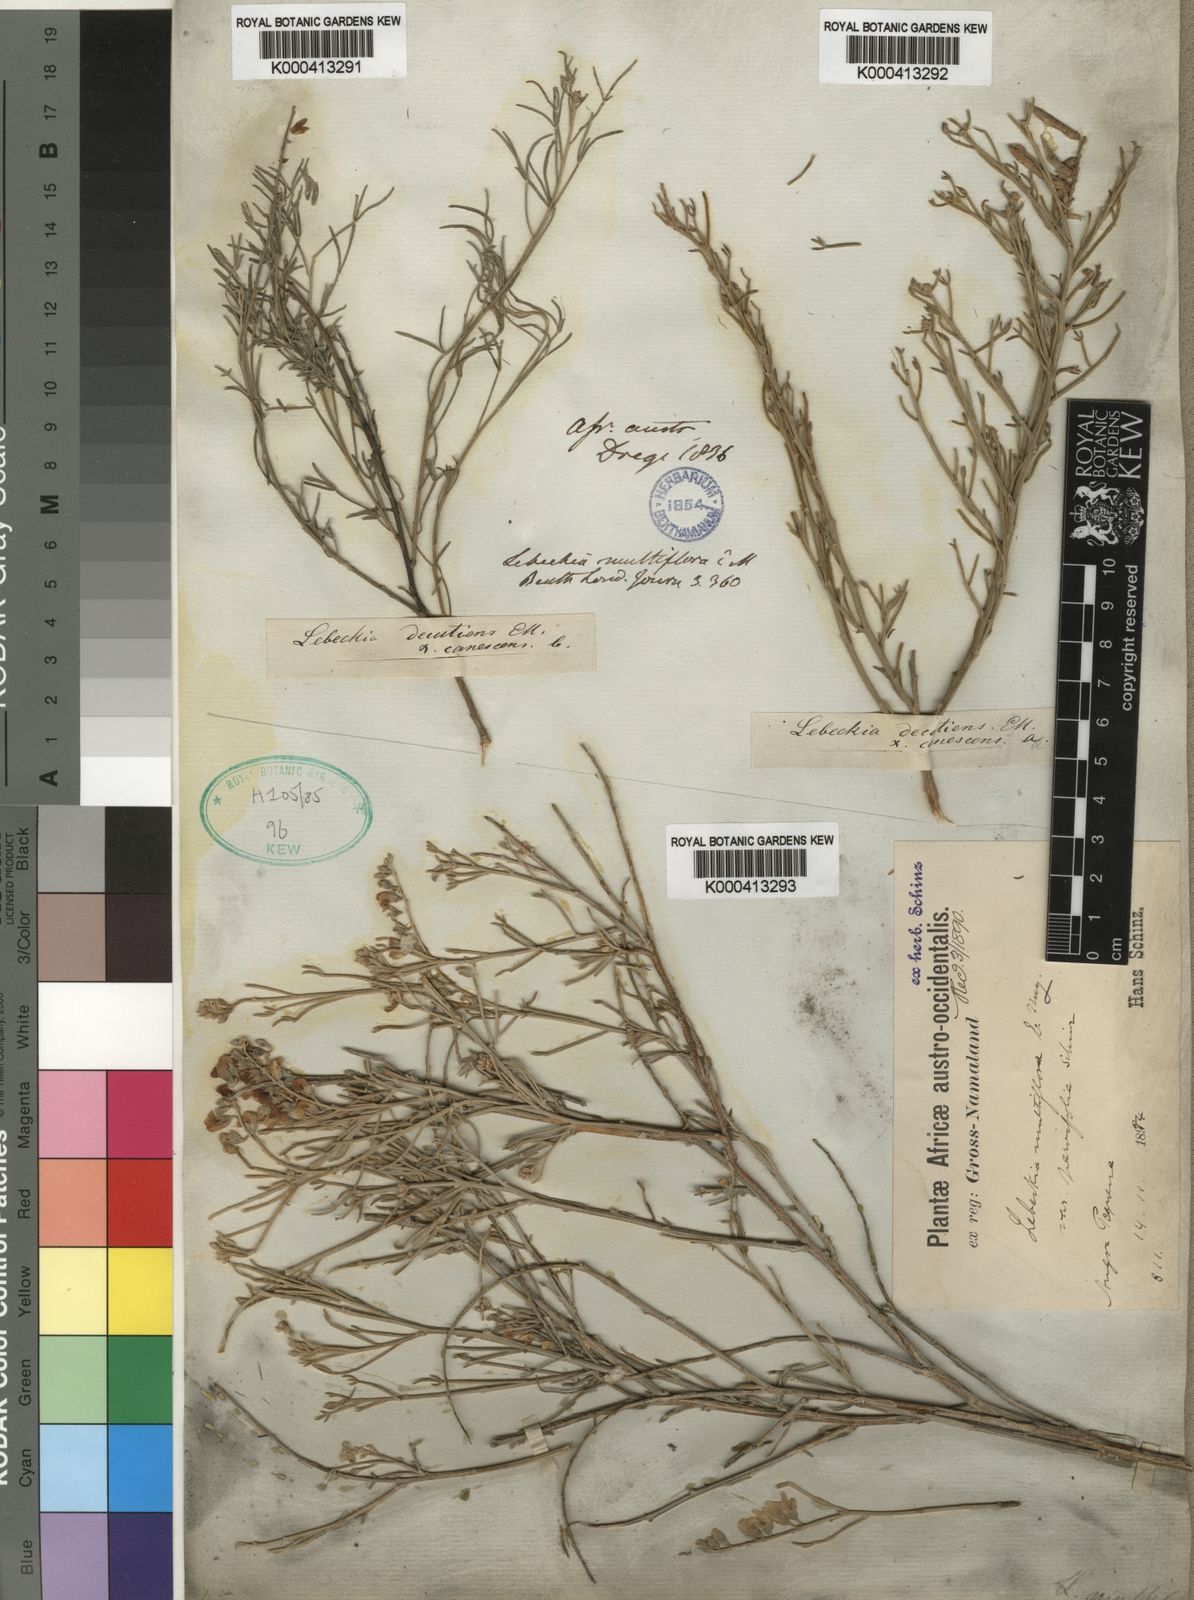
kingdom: Plantae
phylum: Tracheophyta
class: Magnoliopsida
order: Fabales
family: Fabaceae
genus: Calobota
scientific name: Calobota angustifolia
